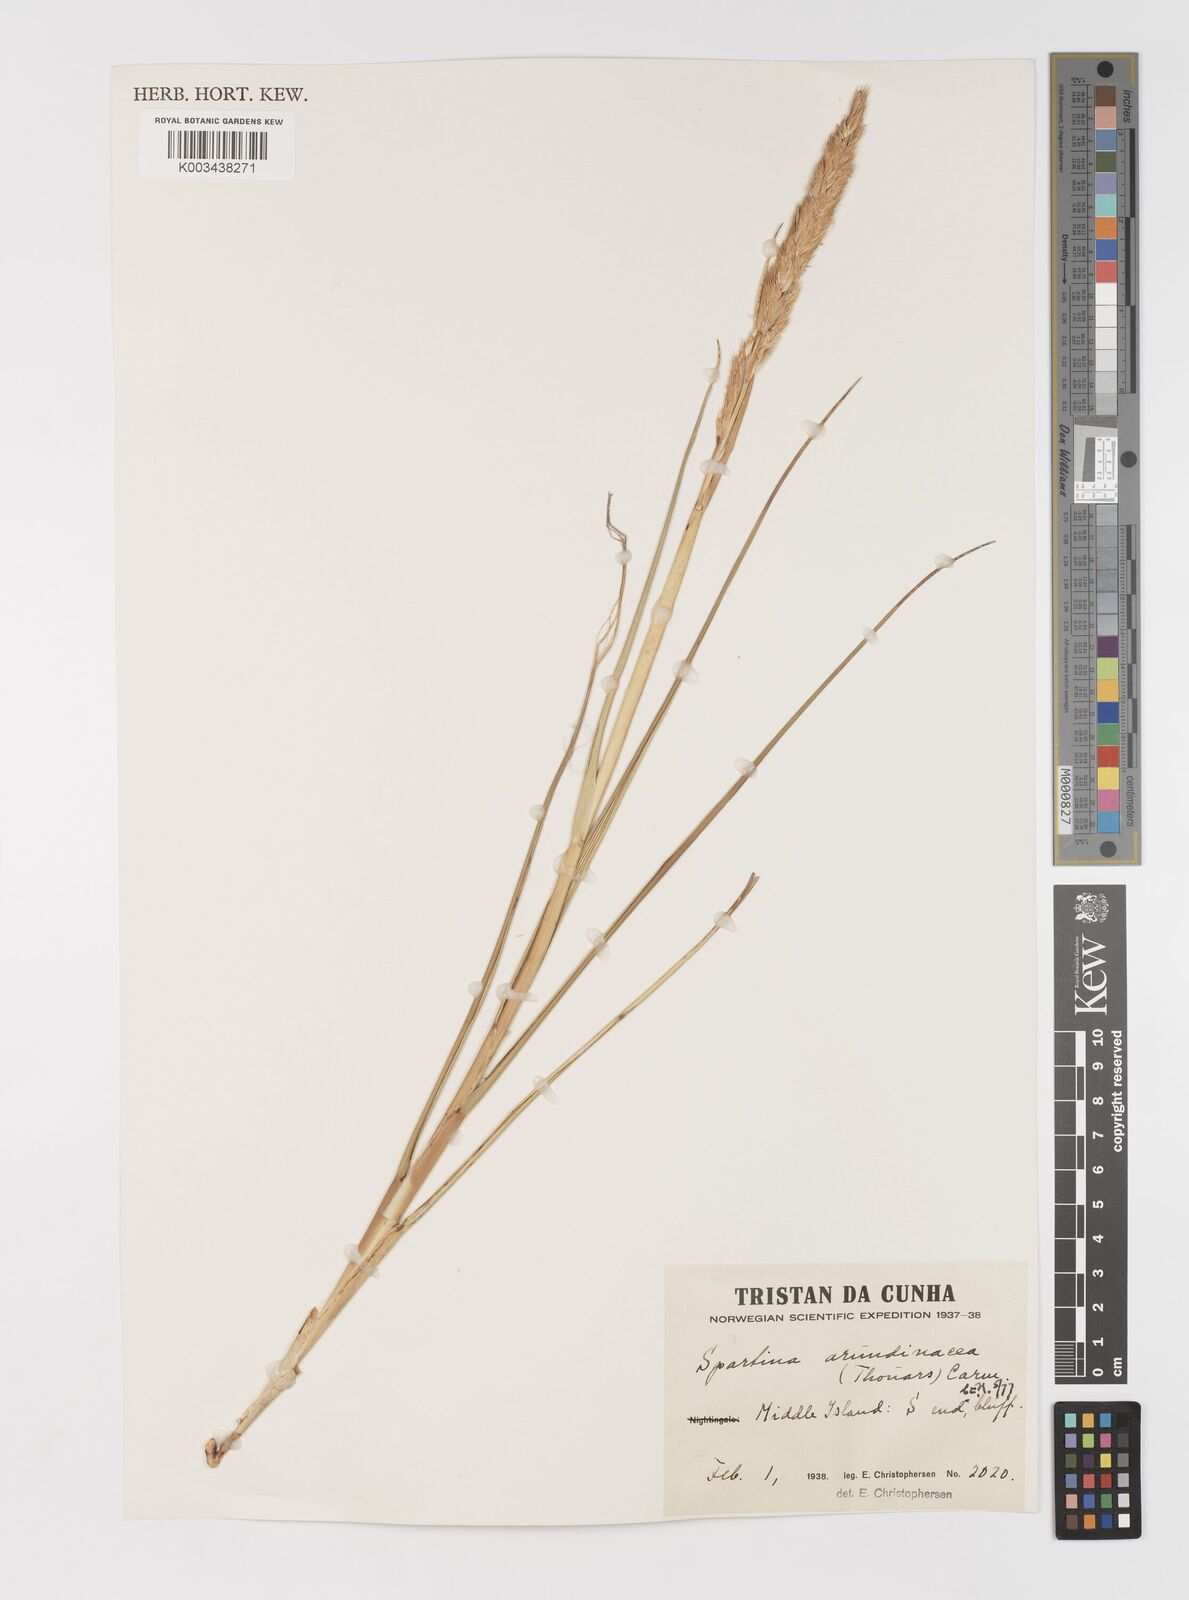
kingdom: Plantae
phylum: Tracheophyta
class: Liliopsida
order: Poales
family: Poaceae
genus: Sporobolus
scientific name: Sporobolus mobberleyanus
